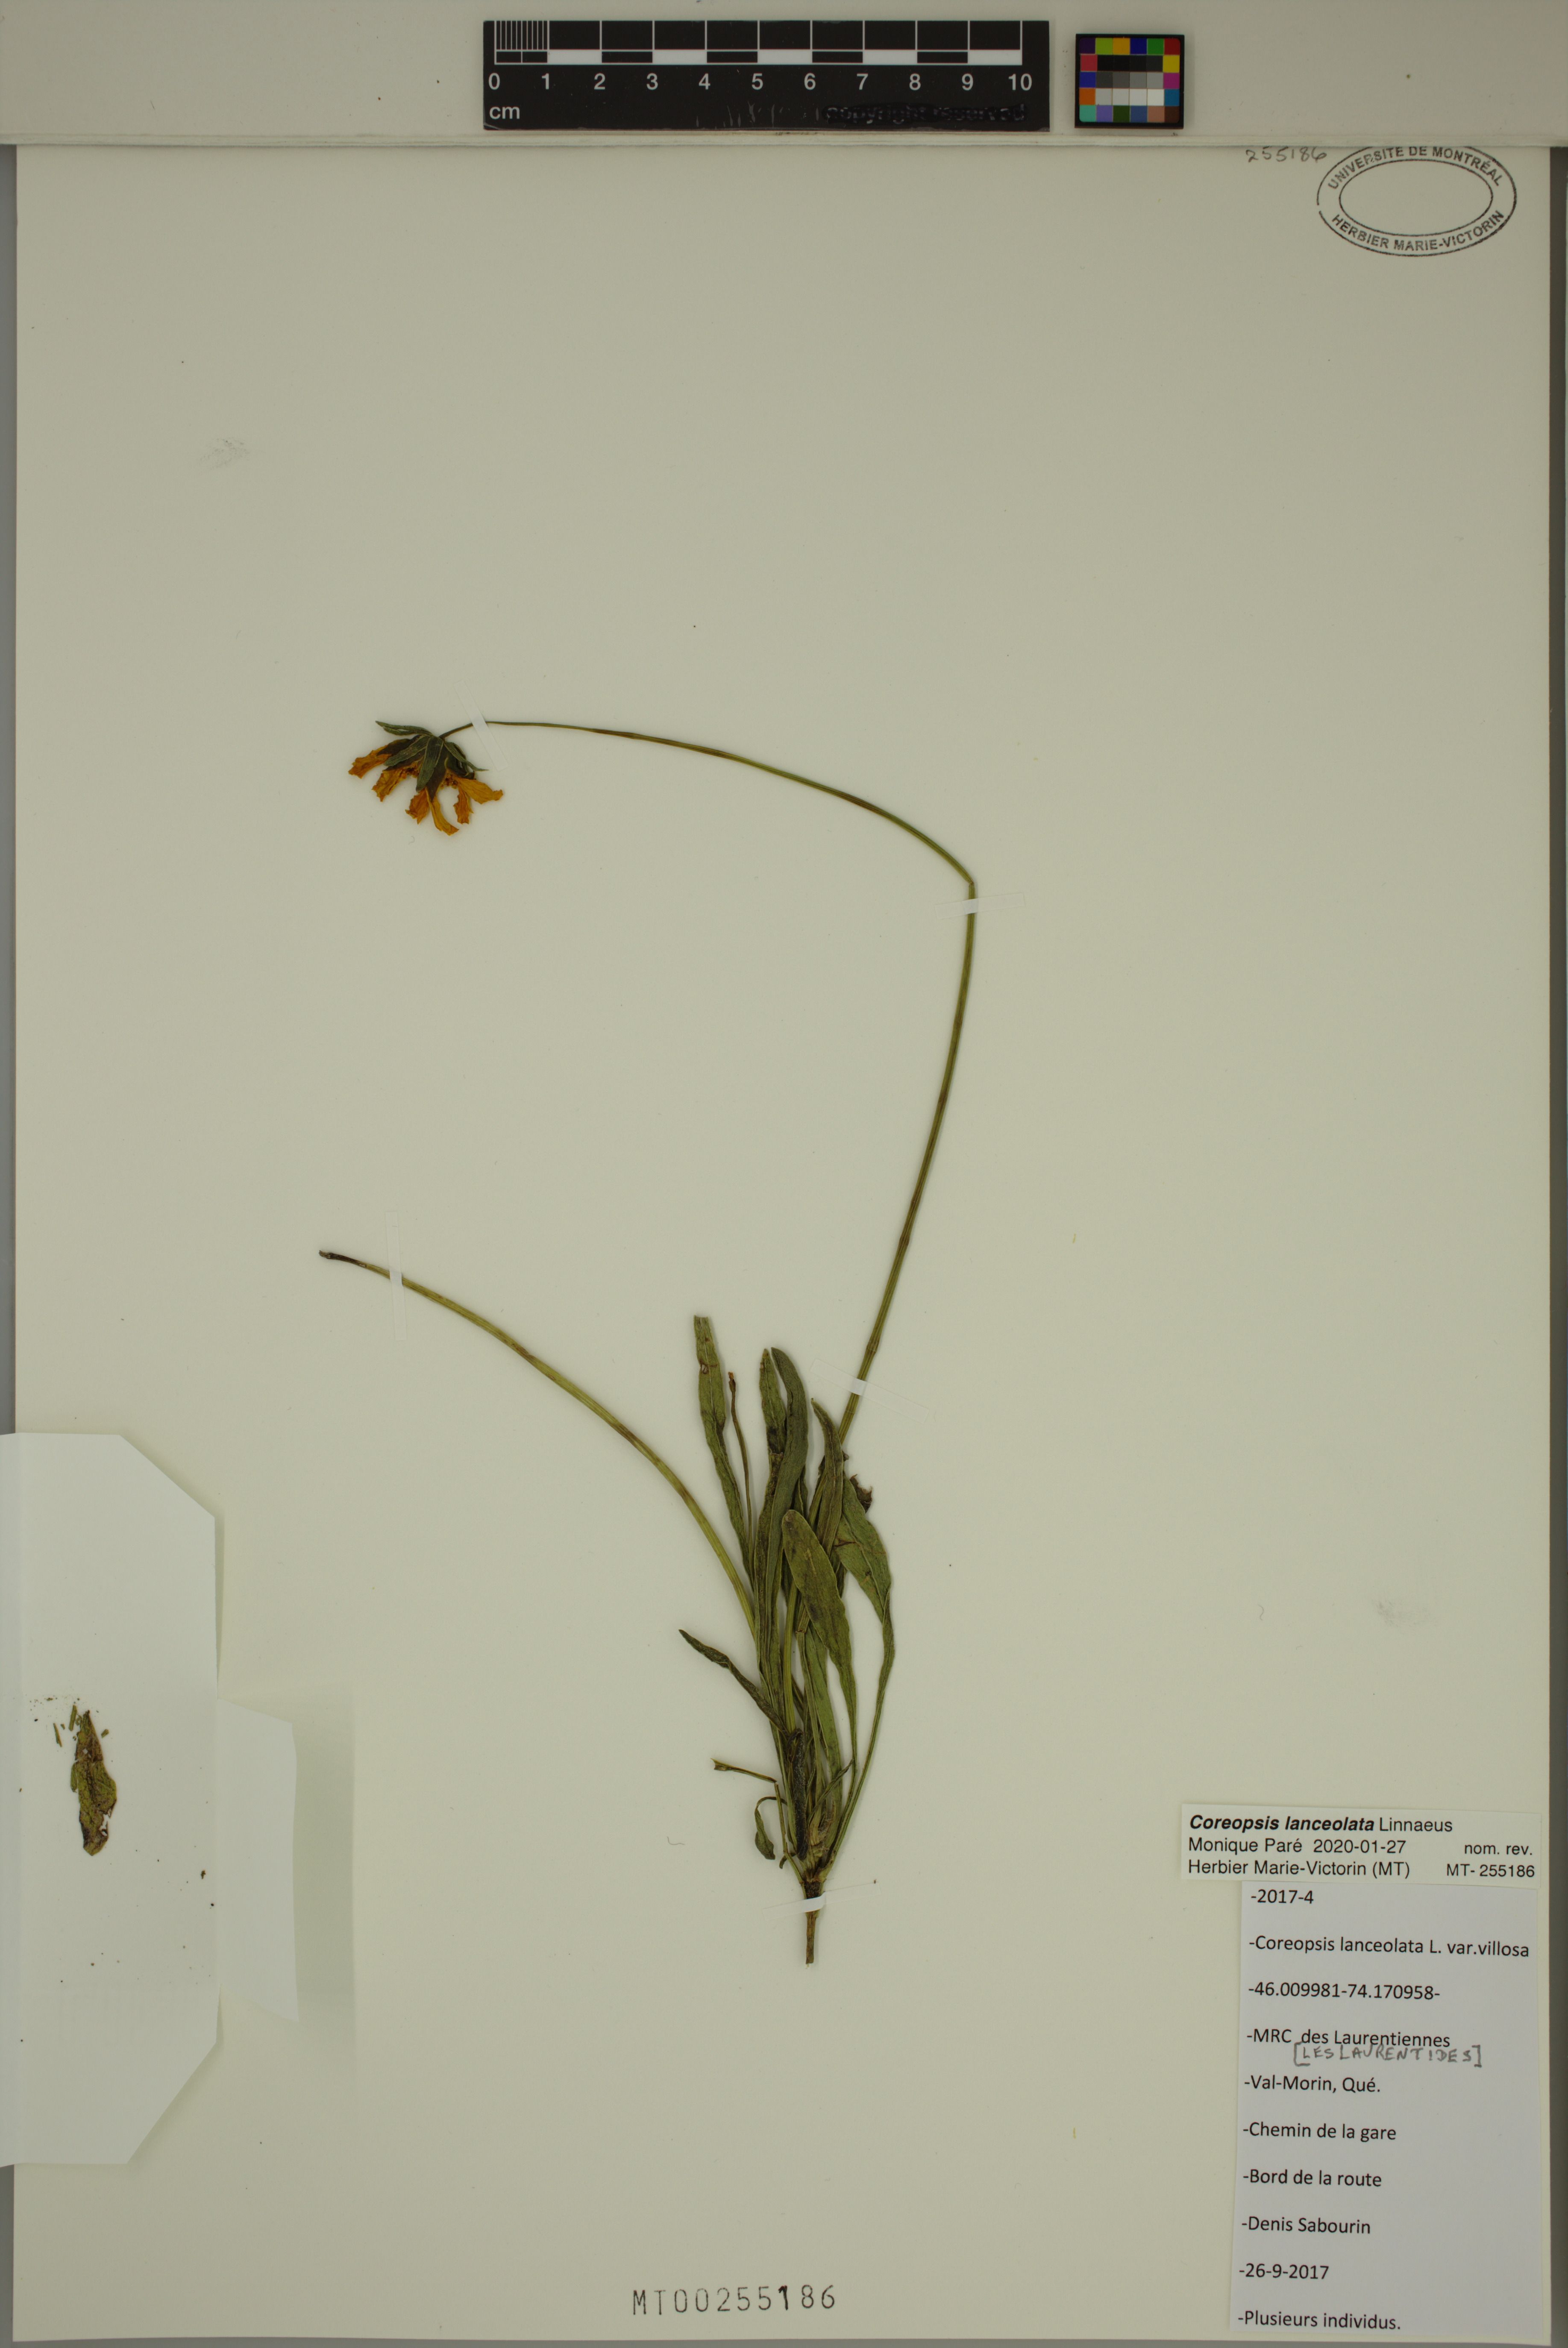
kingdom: Plantae
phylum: Tracheophyta
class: Magnoliopsida
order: Asterales
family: Asteraceae
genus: Coreopsis
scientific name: Coreopsis lanceolata
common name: Garden coreopsis
